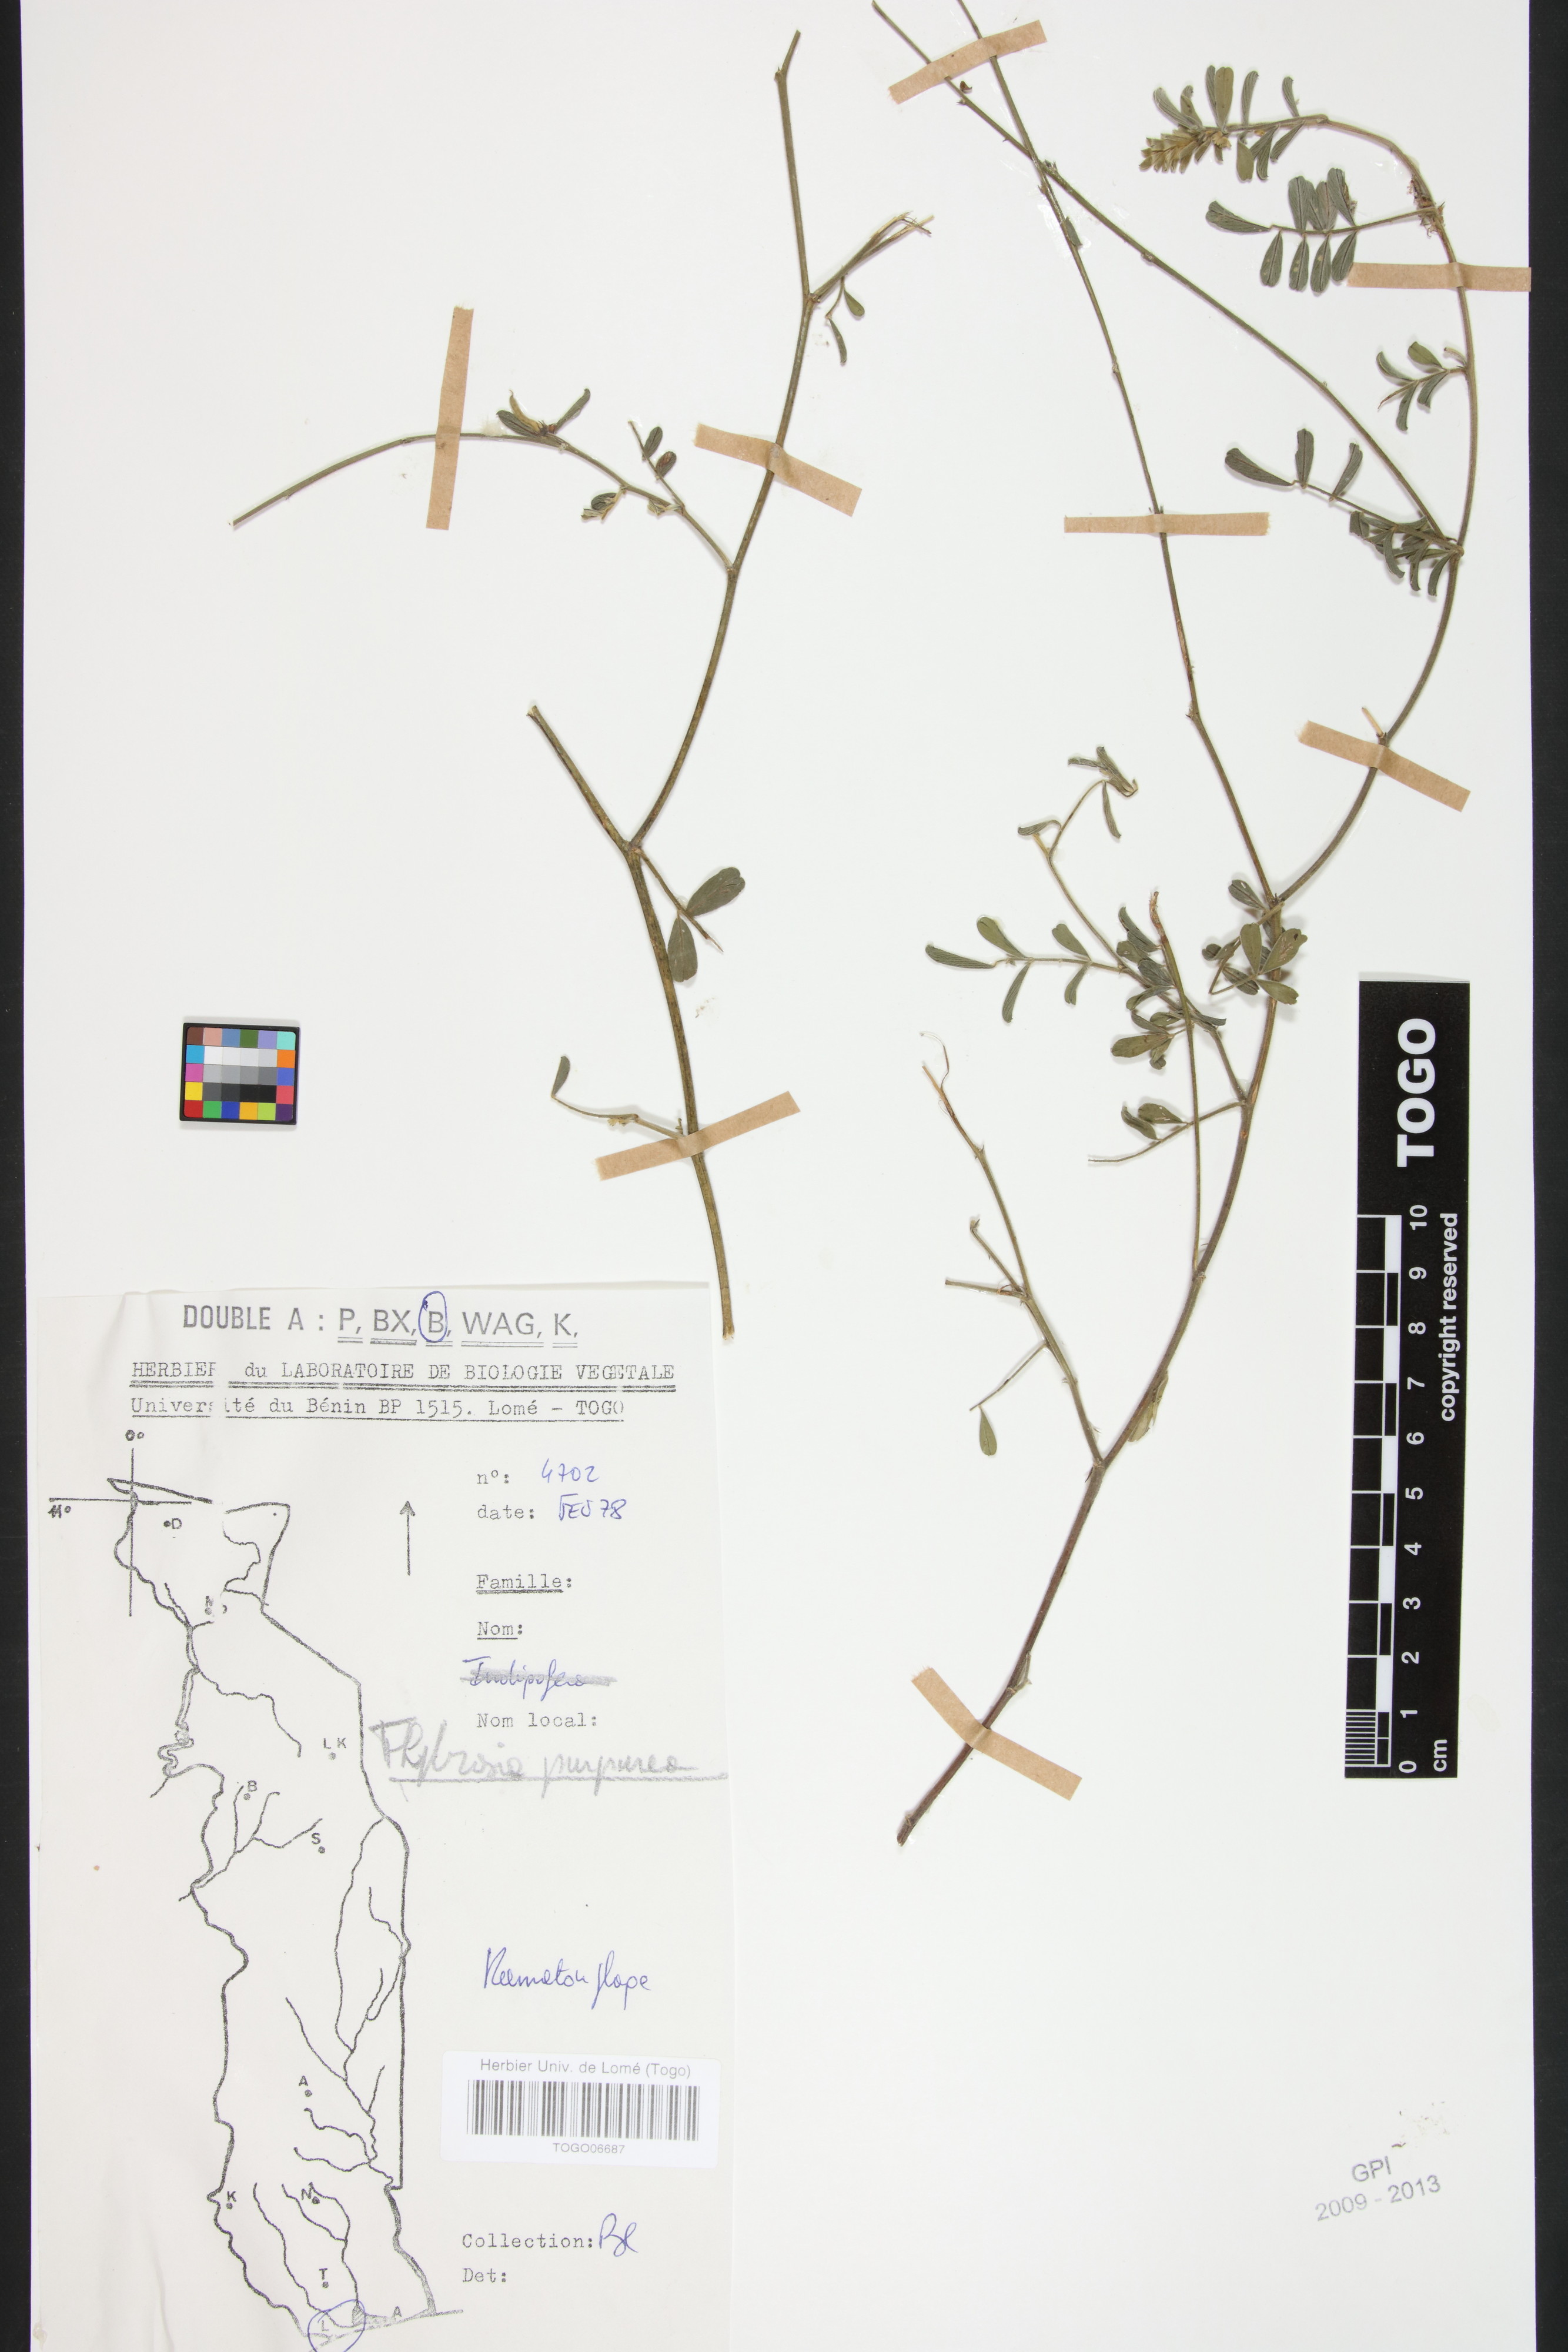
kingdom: Plantae
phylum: Tracheophyta
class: Magnoliopsida
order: Fabales
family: Fabaceae
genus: Tephrosia
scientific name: Tephrosia purpurea
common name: Fishpoison
